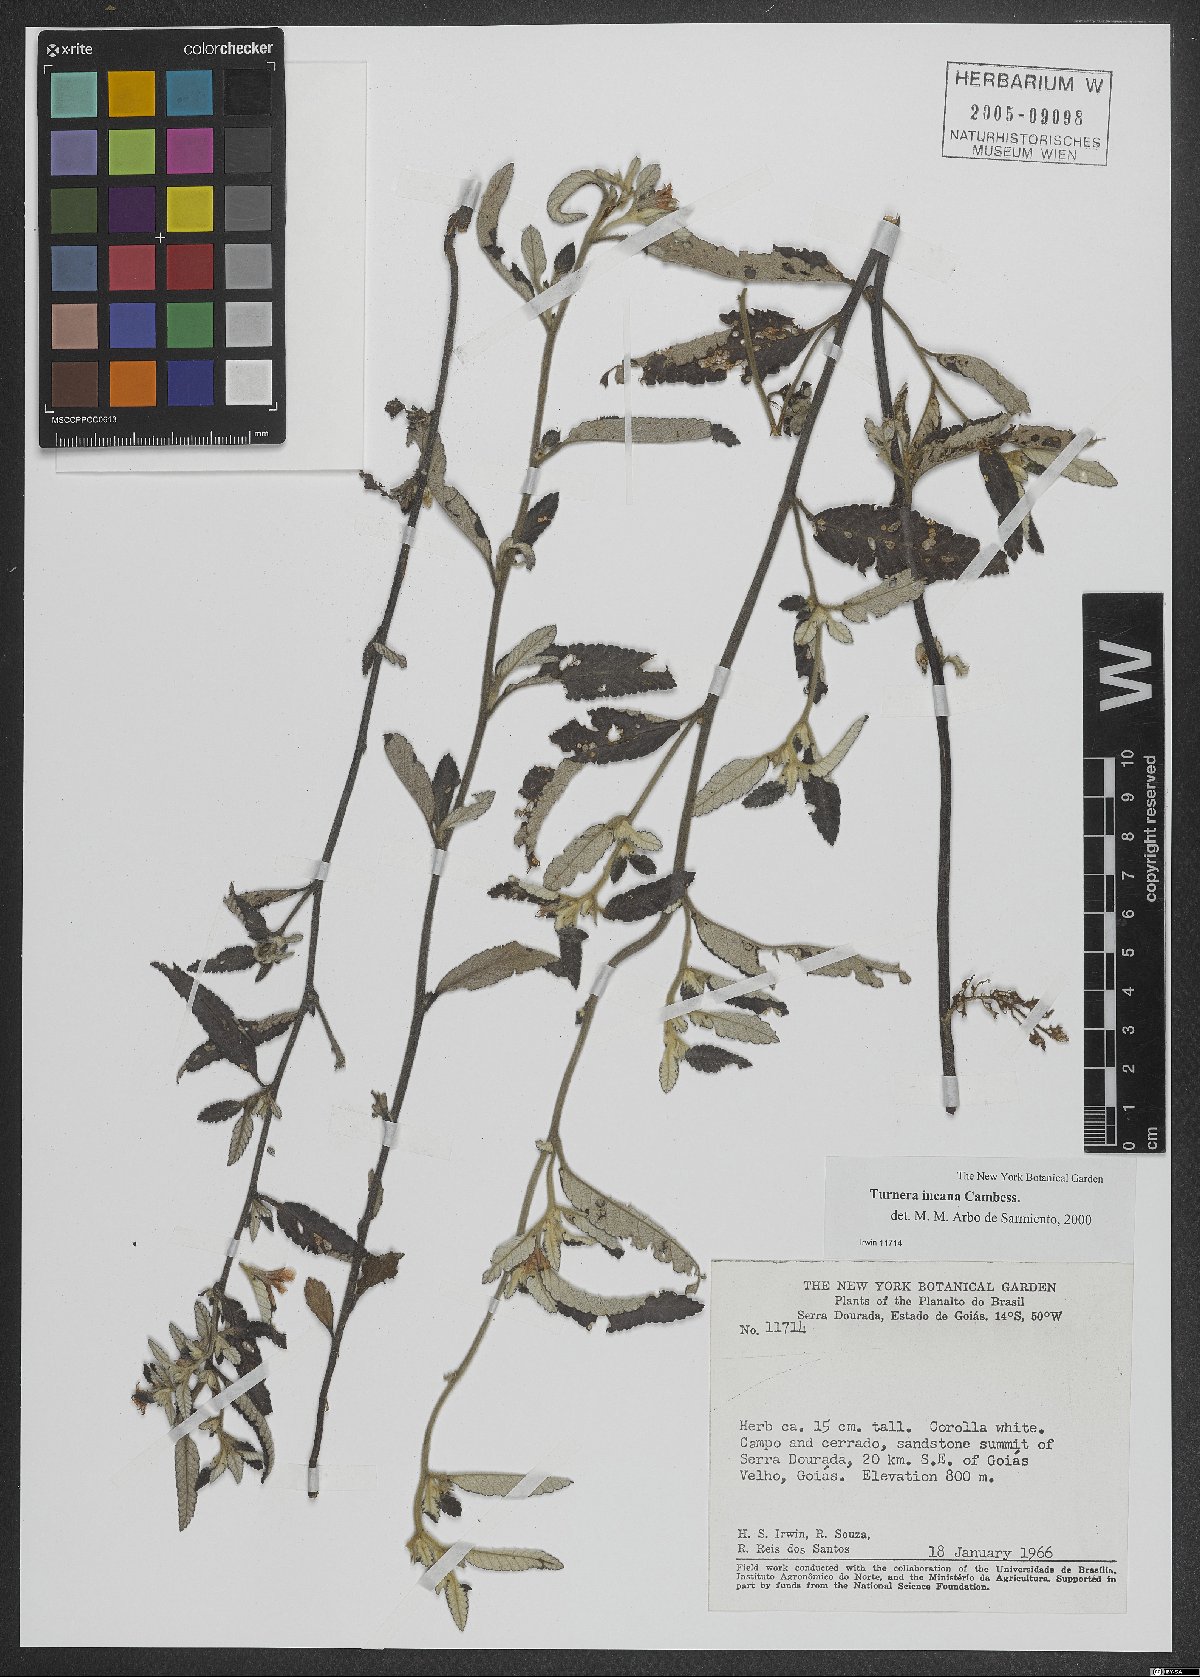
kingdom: Plantae
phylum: Tracheophyta
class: Magnoliopsida
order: Malpighiales
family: Turneraceae
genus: Turnera
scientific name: Turnera incana
